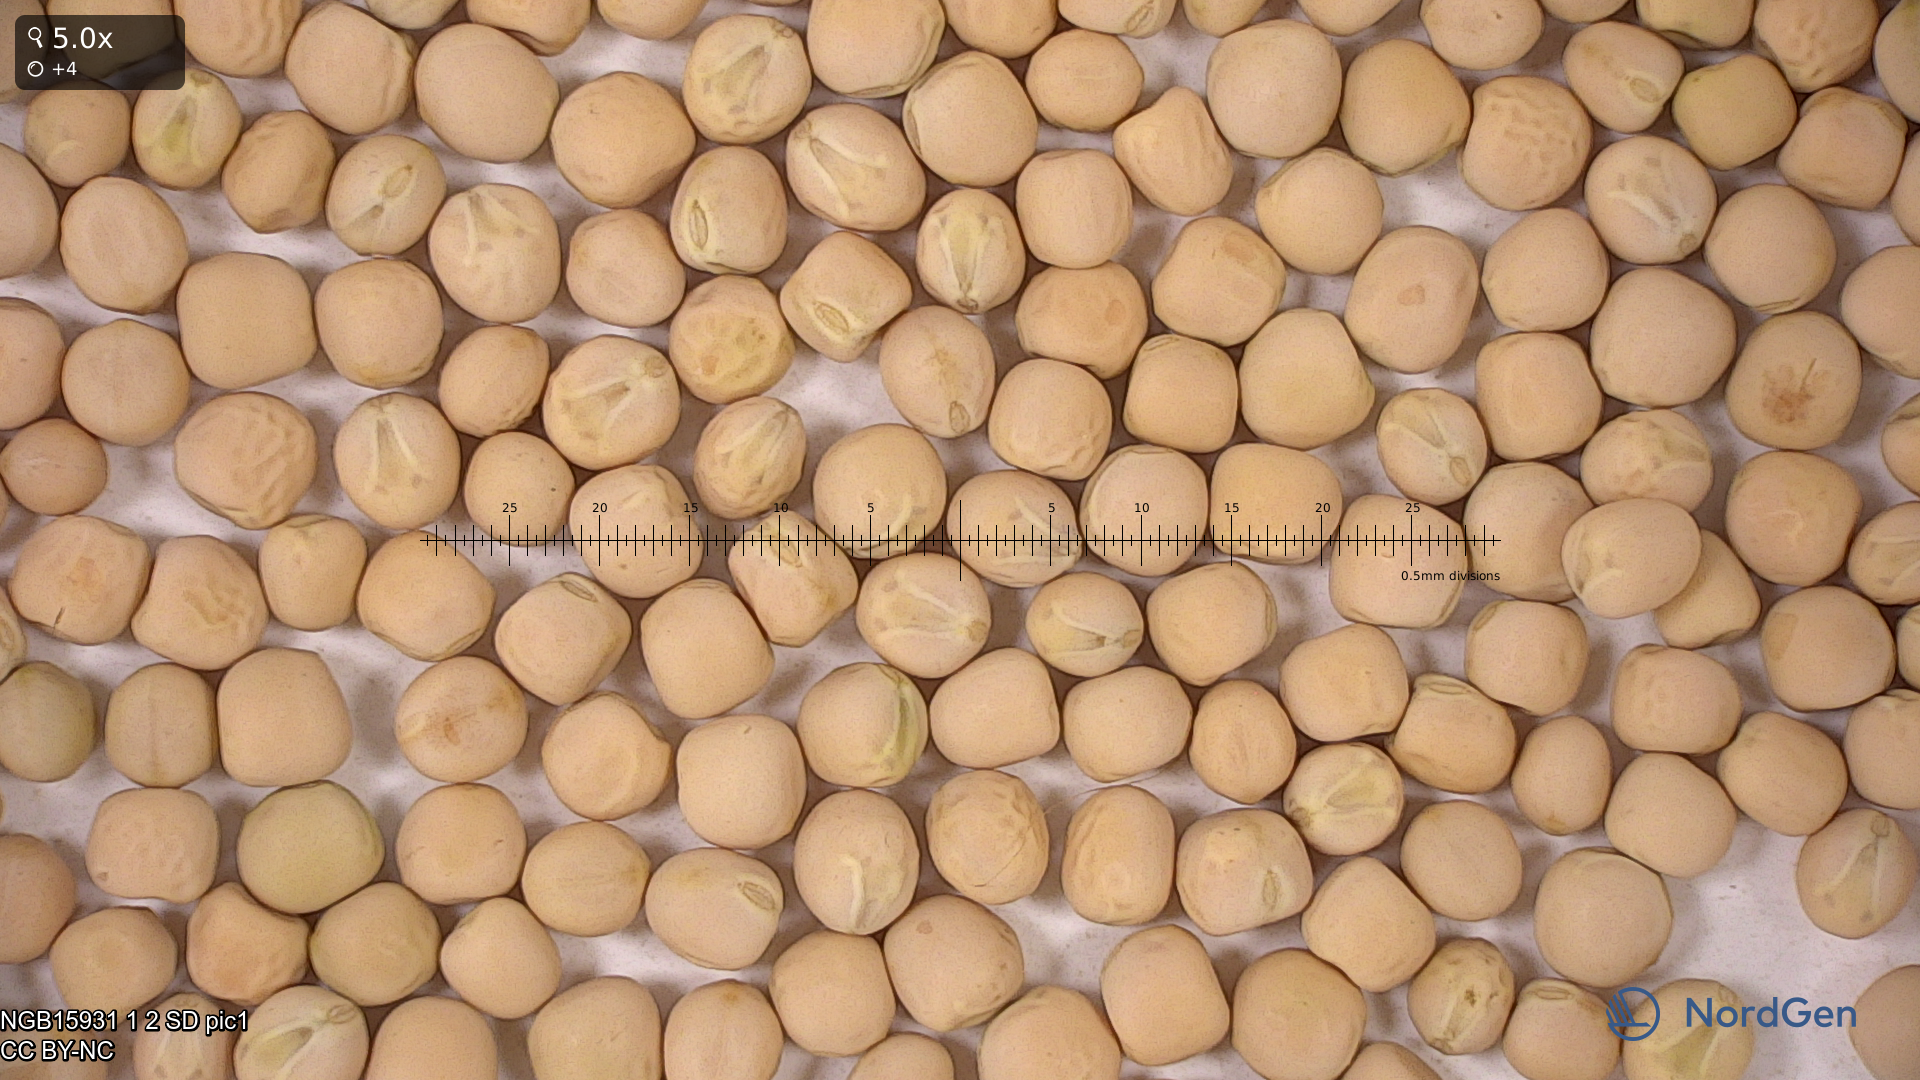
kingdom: Plantae
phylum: Tracheophyta
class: Magnoliopsida
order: Fabales
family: Fabaceae
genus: Lathyrus
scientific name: Lathyrus oleraceus
